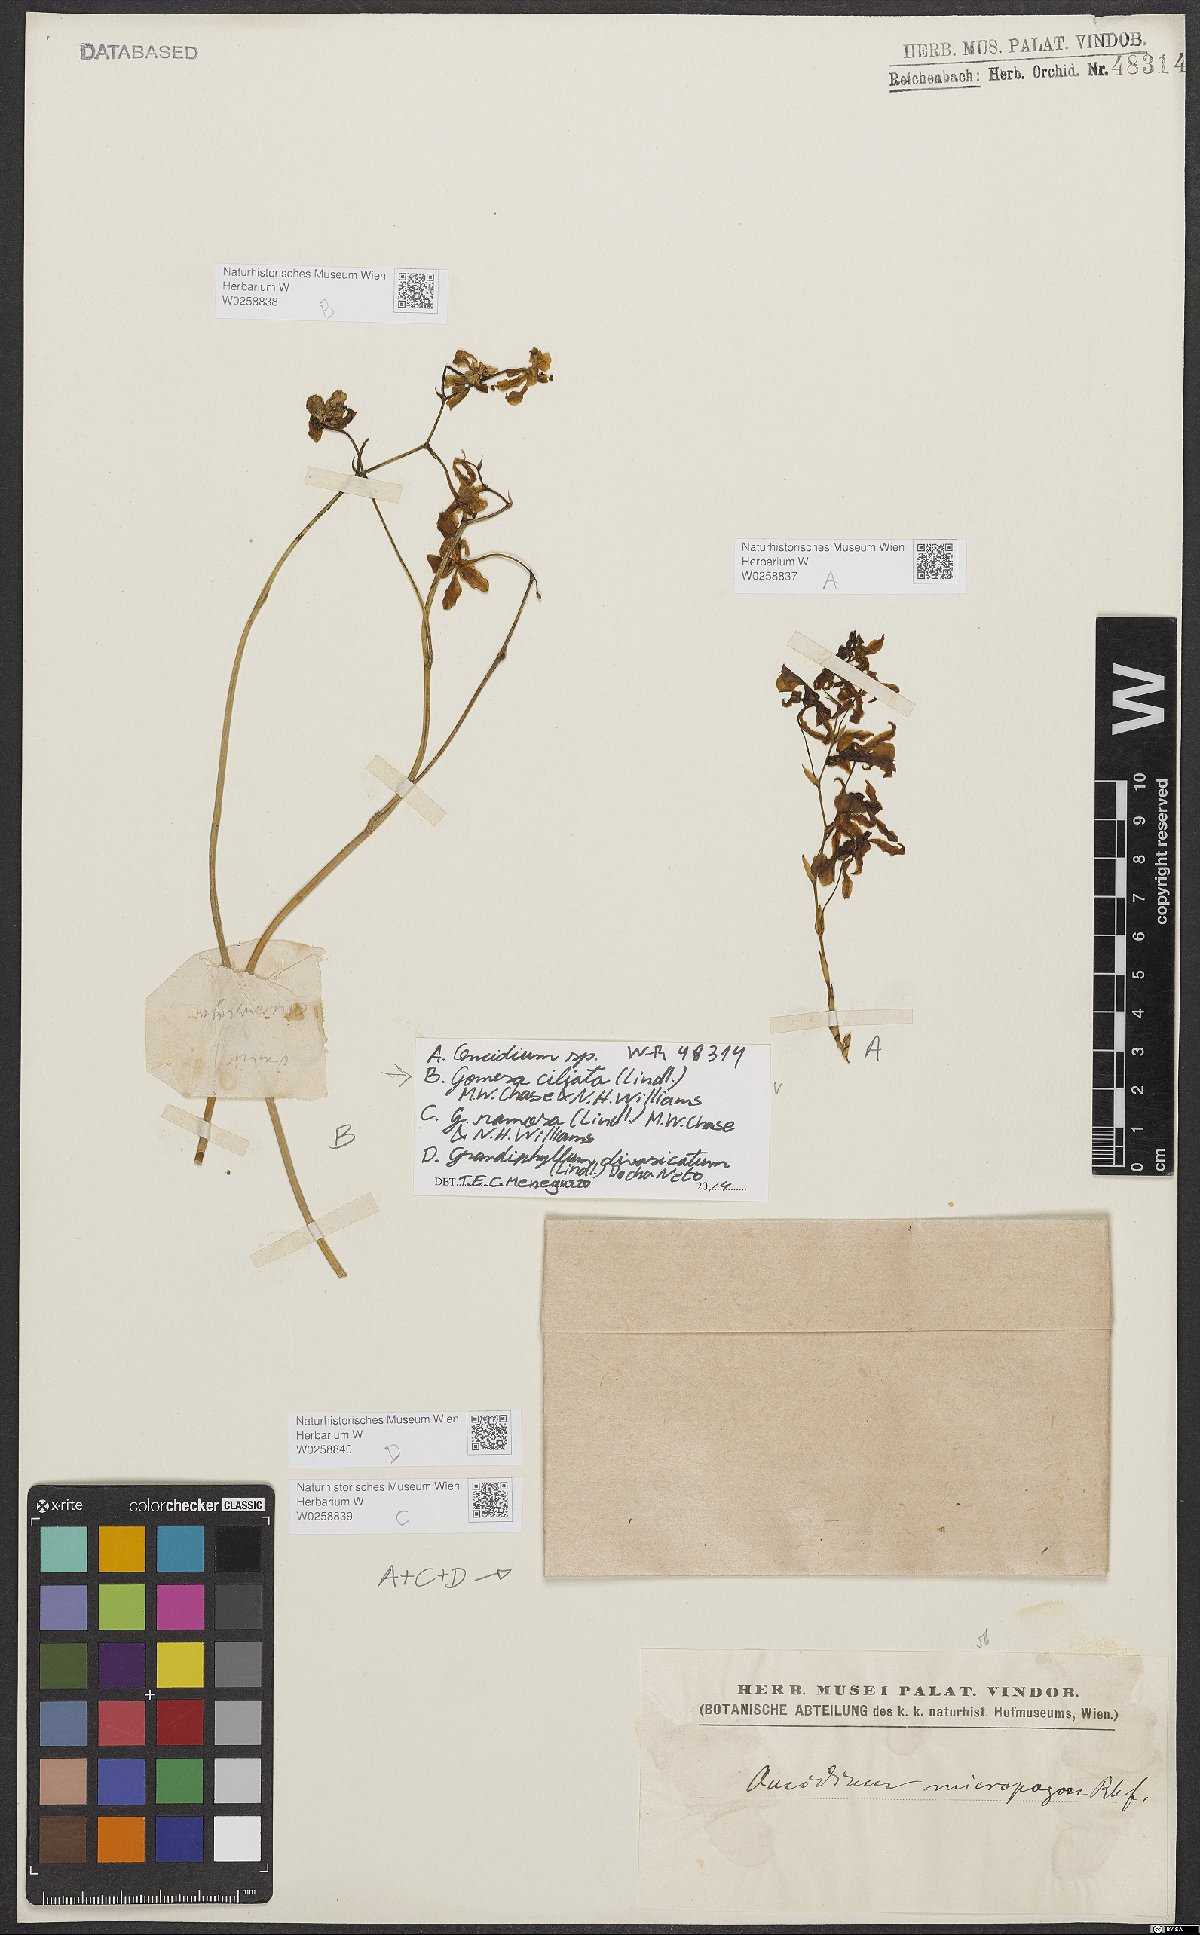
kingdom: Plantae
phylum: Tracheophyta
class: Liliopsida
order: Asparagales
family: Orchidaceae
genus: Gomesa
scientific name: Gomesa
